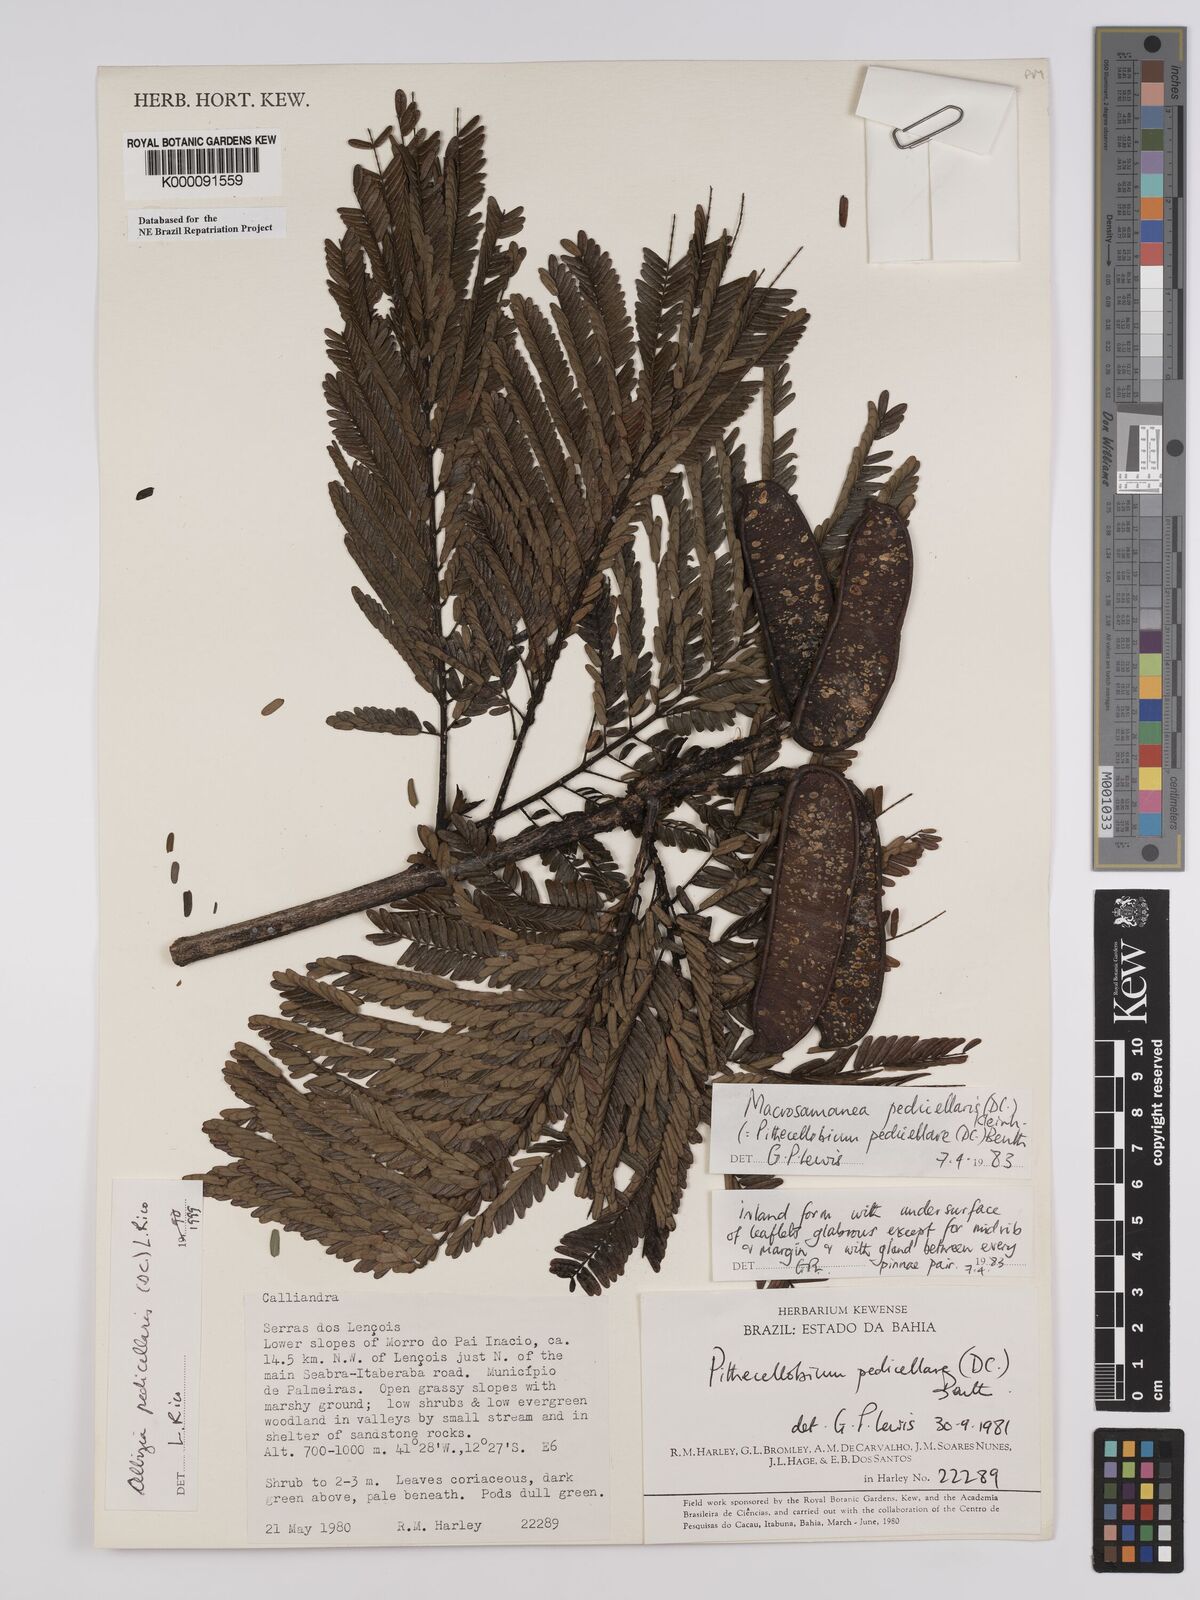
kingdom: Plantae
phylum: Tracheophyta
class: Magnoliopsida
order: Fabales
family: Fabaceae
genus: Balizia
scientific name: Balizia pedicellaris
